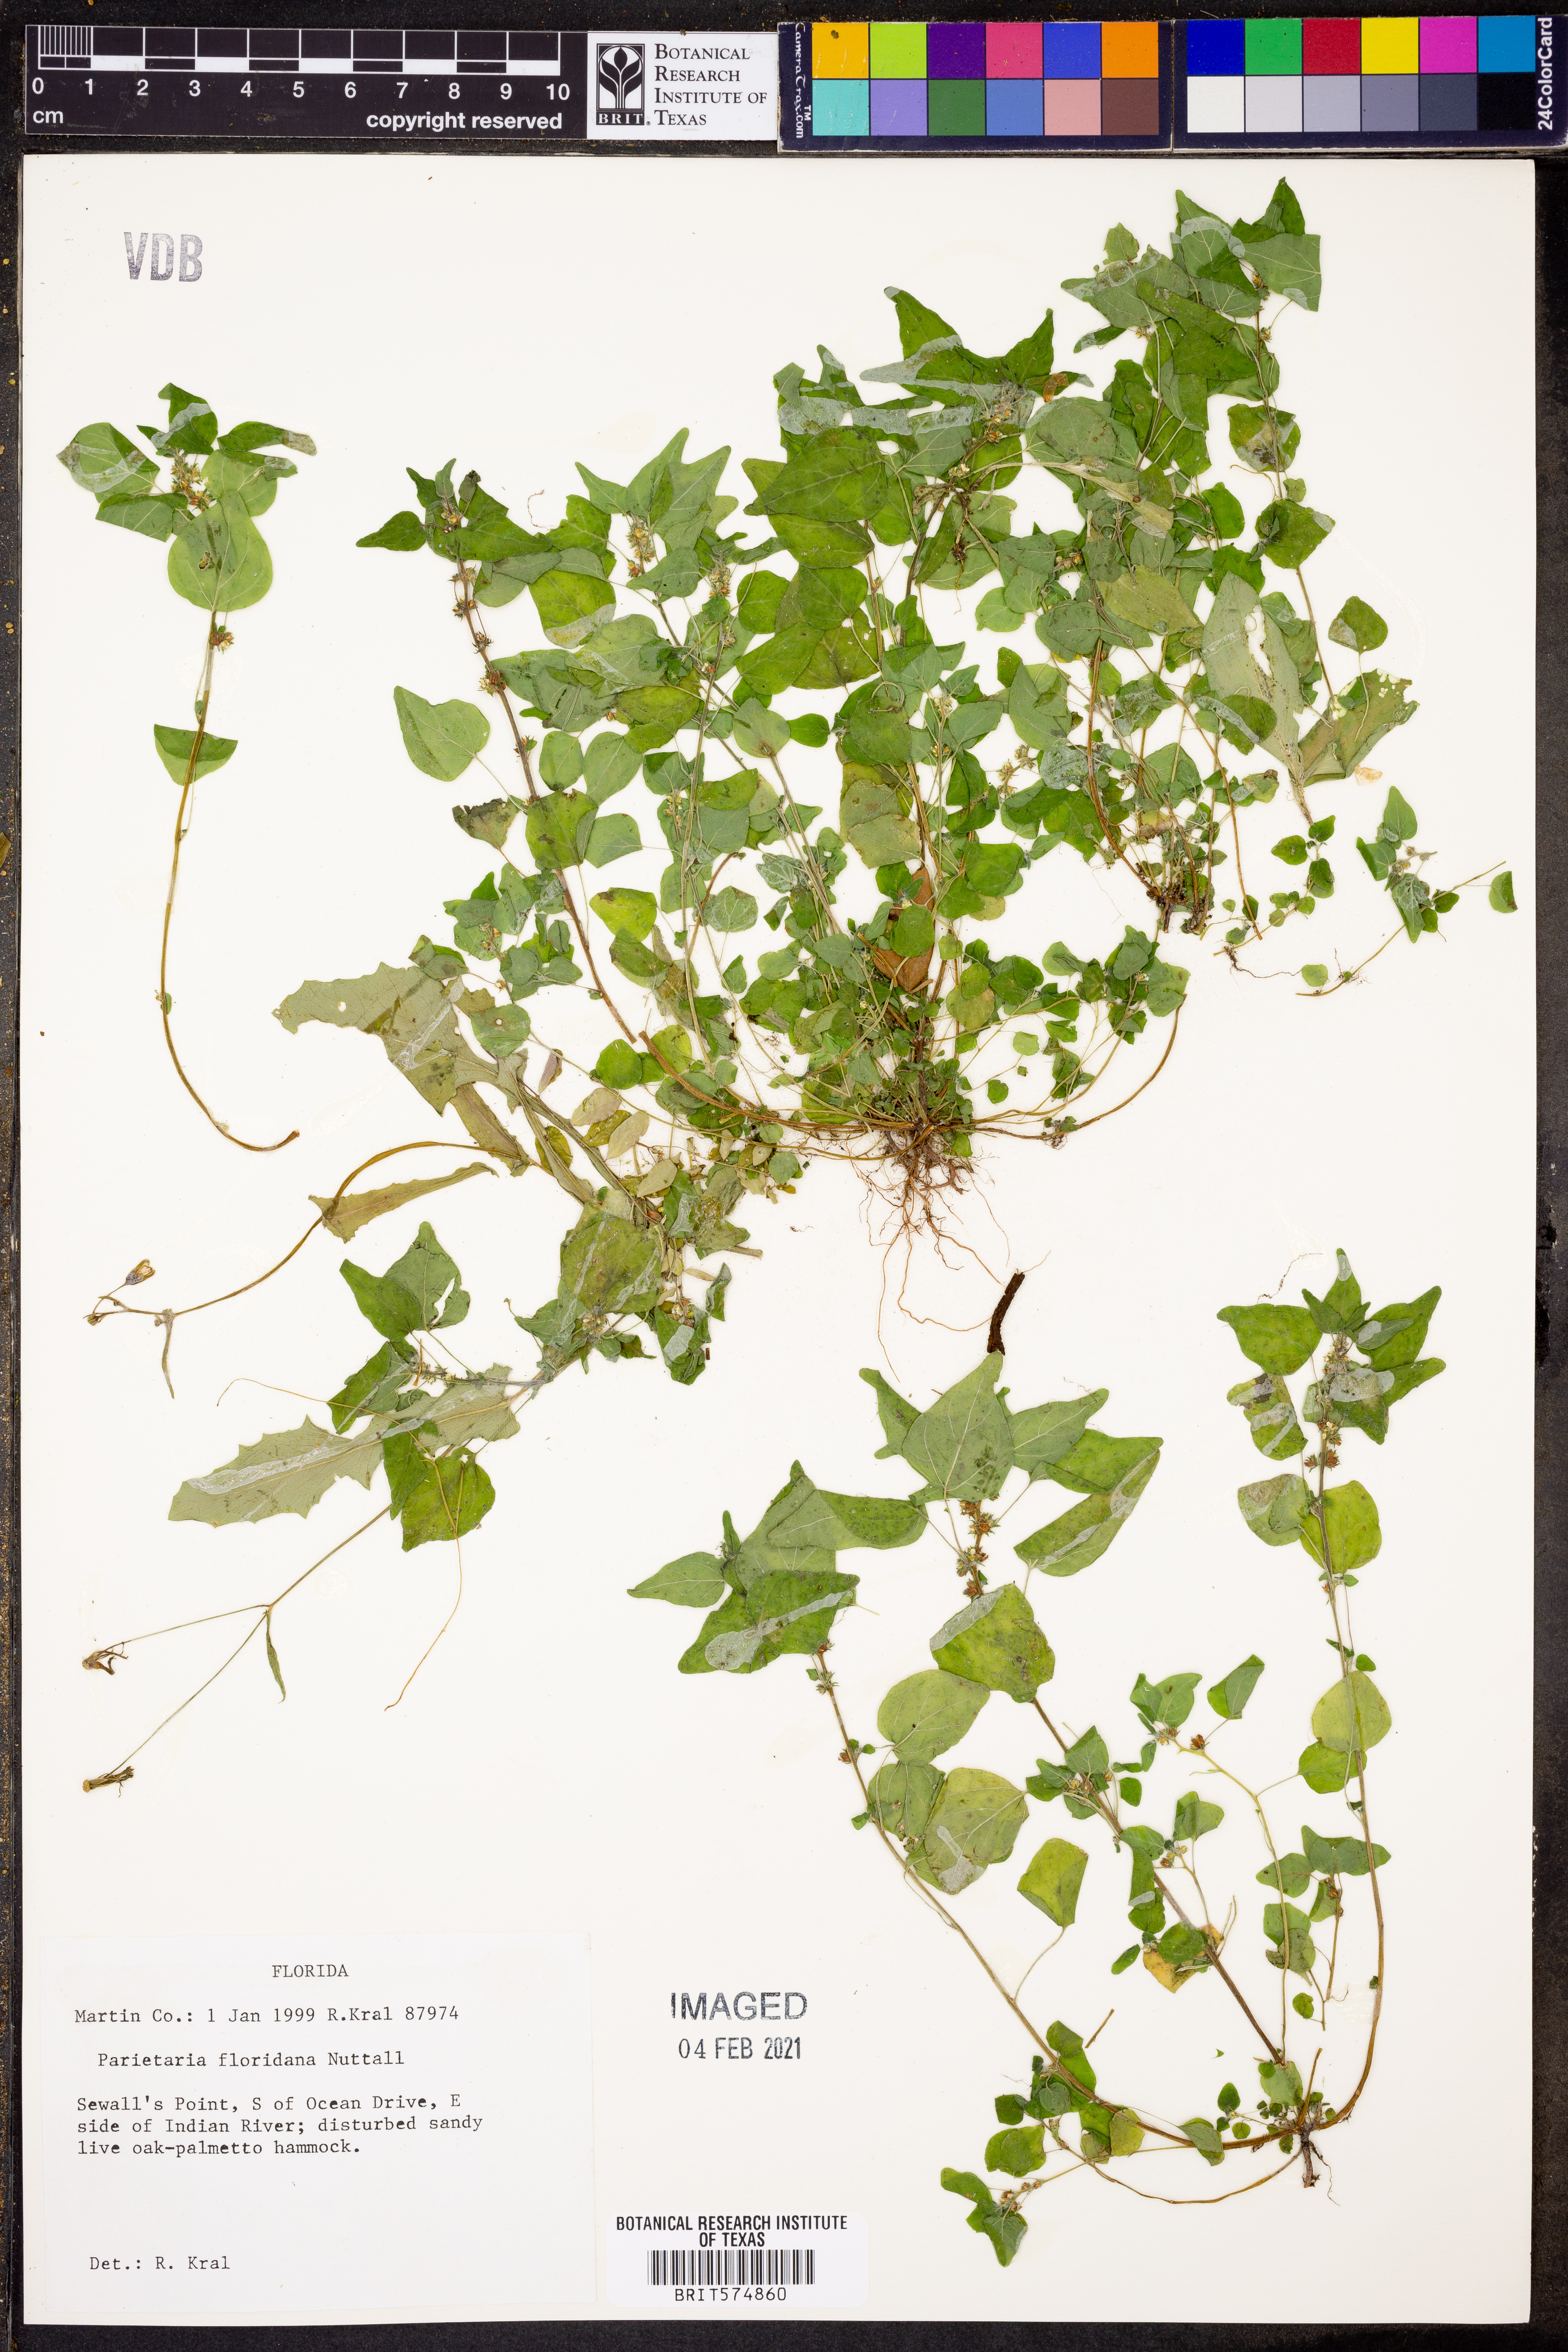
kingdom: Plantae
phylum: Tracheophyta
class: Magnoliopsida
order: Rosales
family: Urticaceae
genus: Parietaria
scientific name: Parietaria floridana
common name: Florida pellitory
